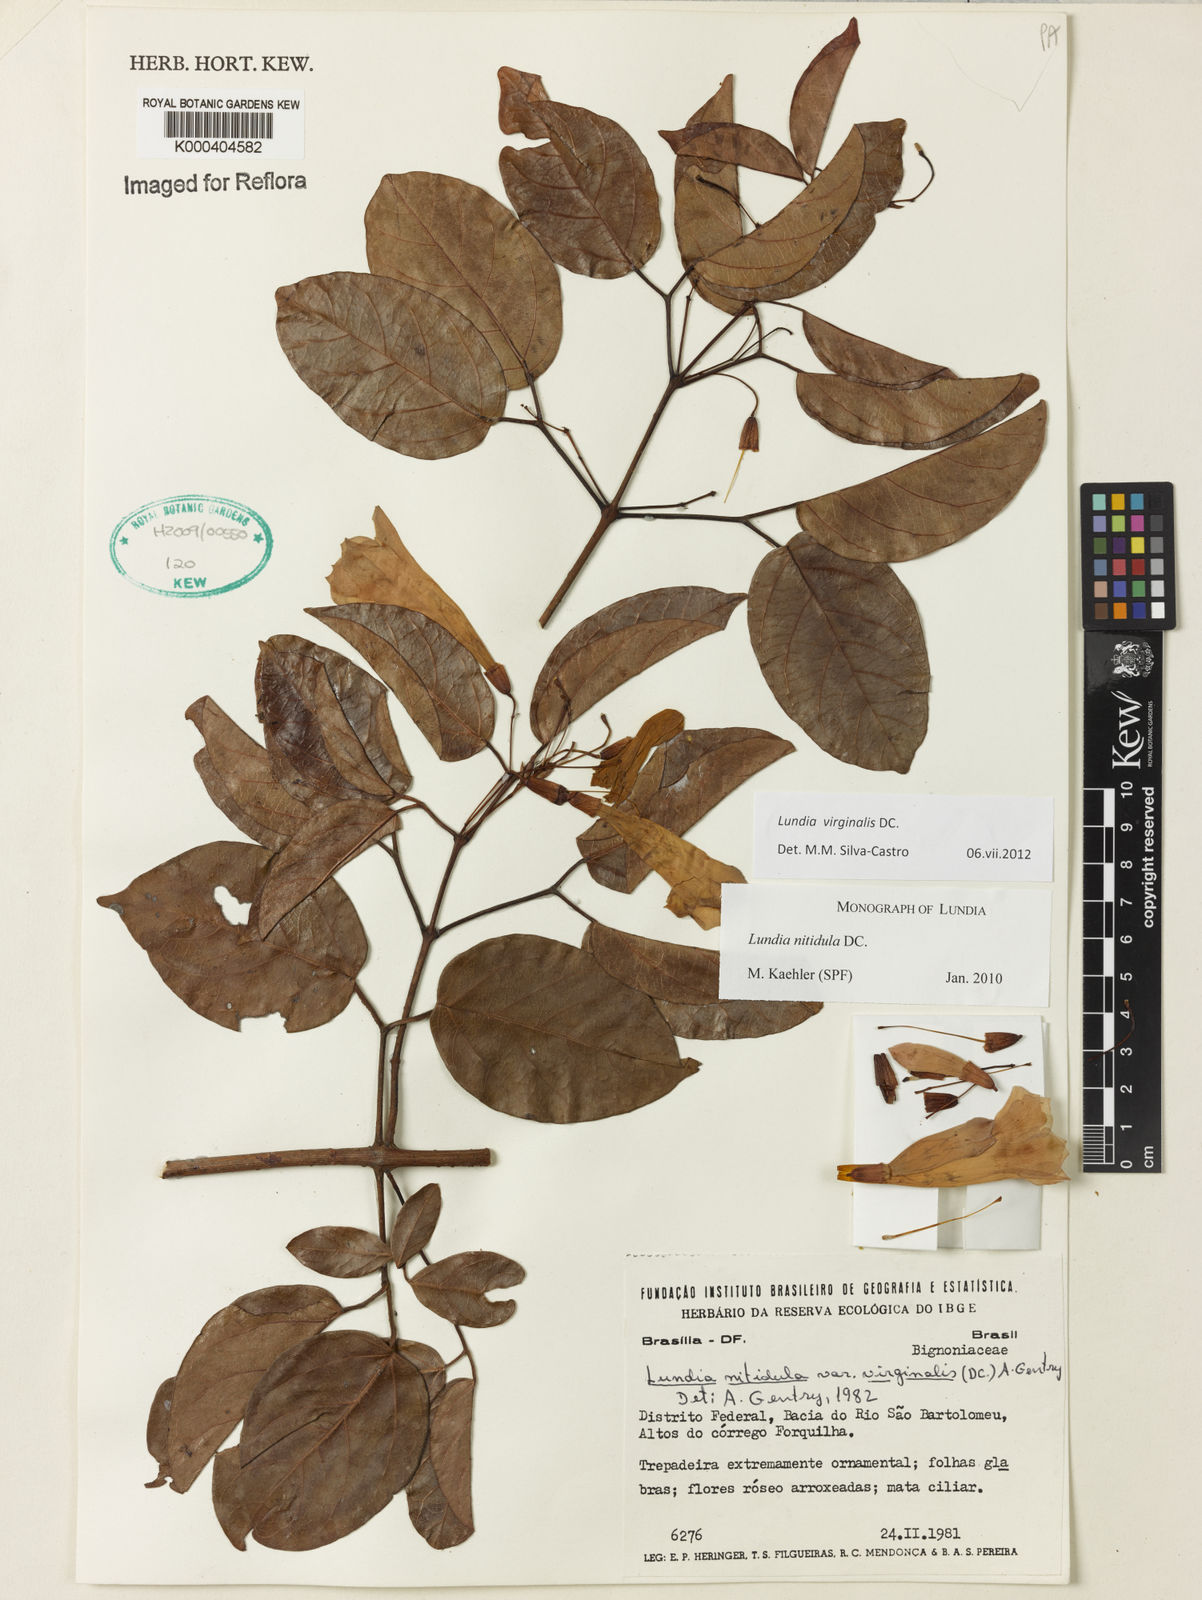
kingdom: Plantae
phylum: Tracheophyta
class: Magnoliopsida
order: Lamiales
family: Bignoniaceae
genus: Lundia
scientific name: Lundia virginalis
